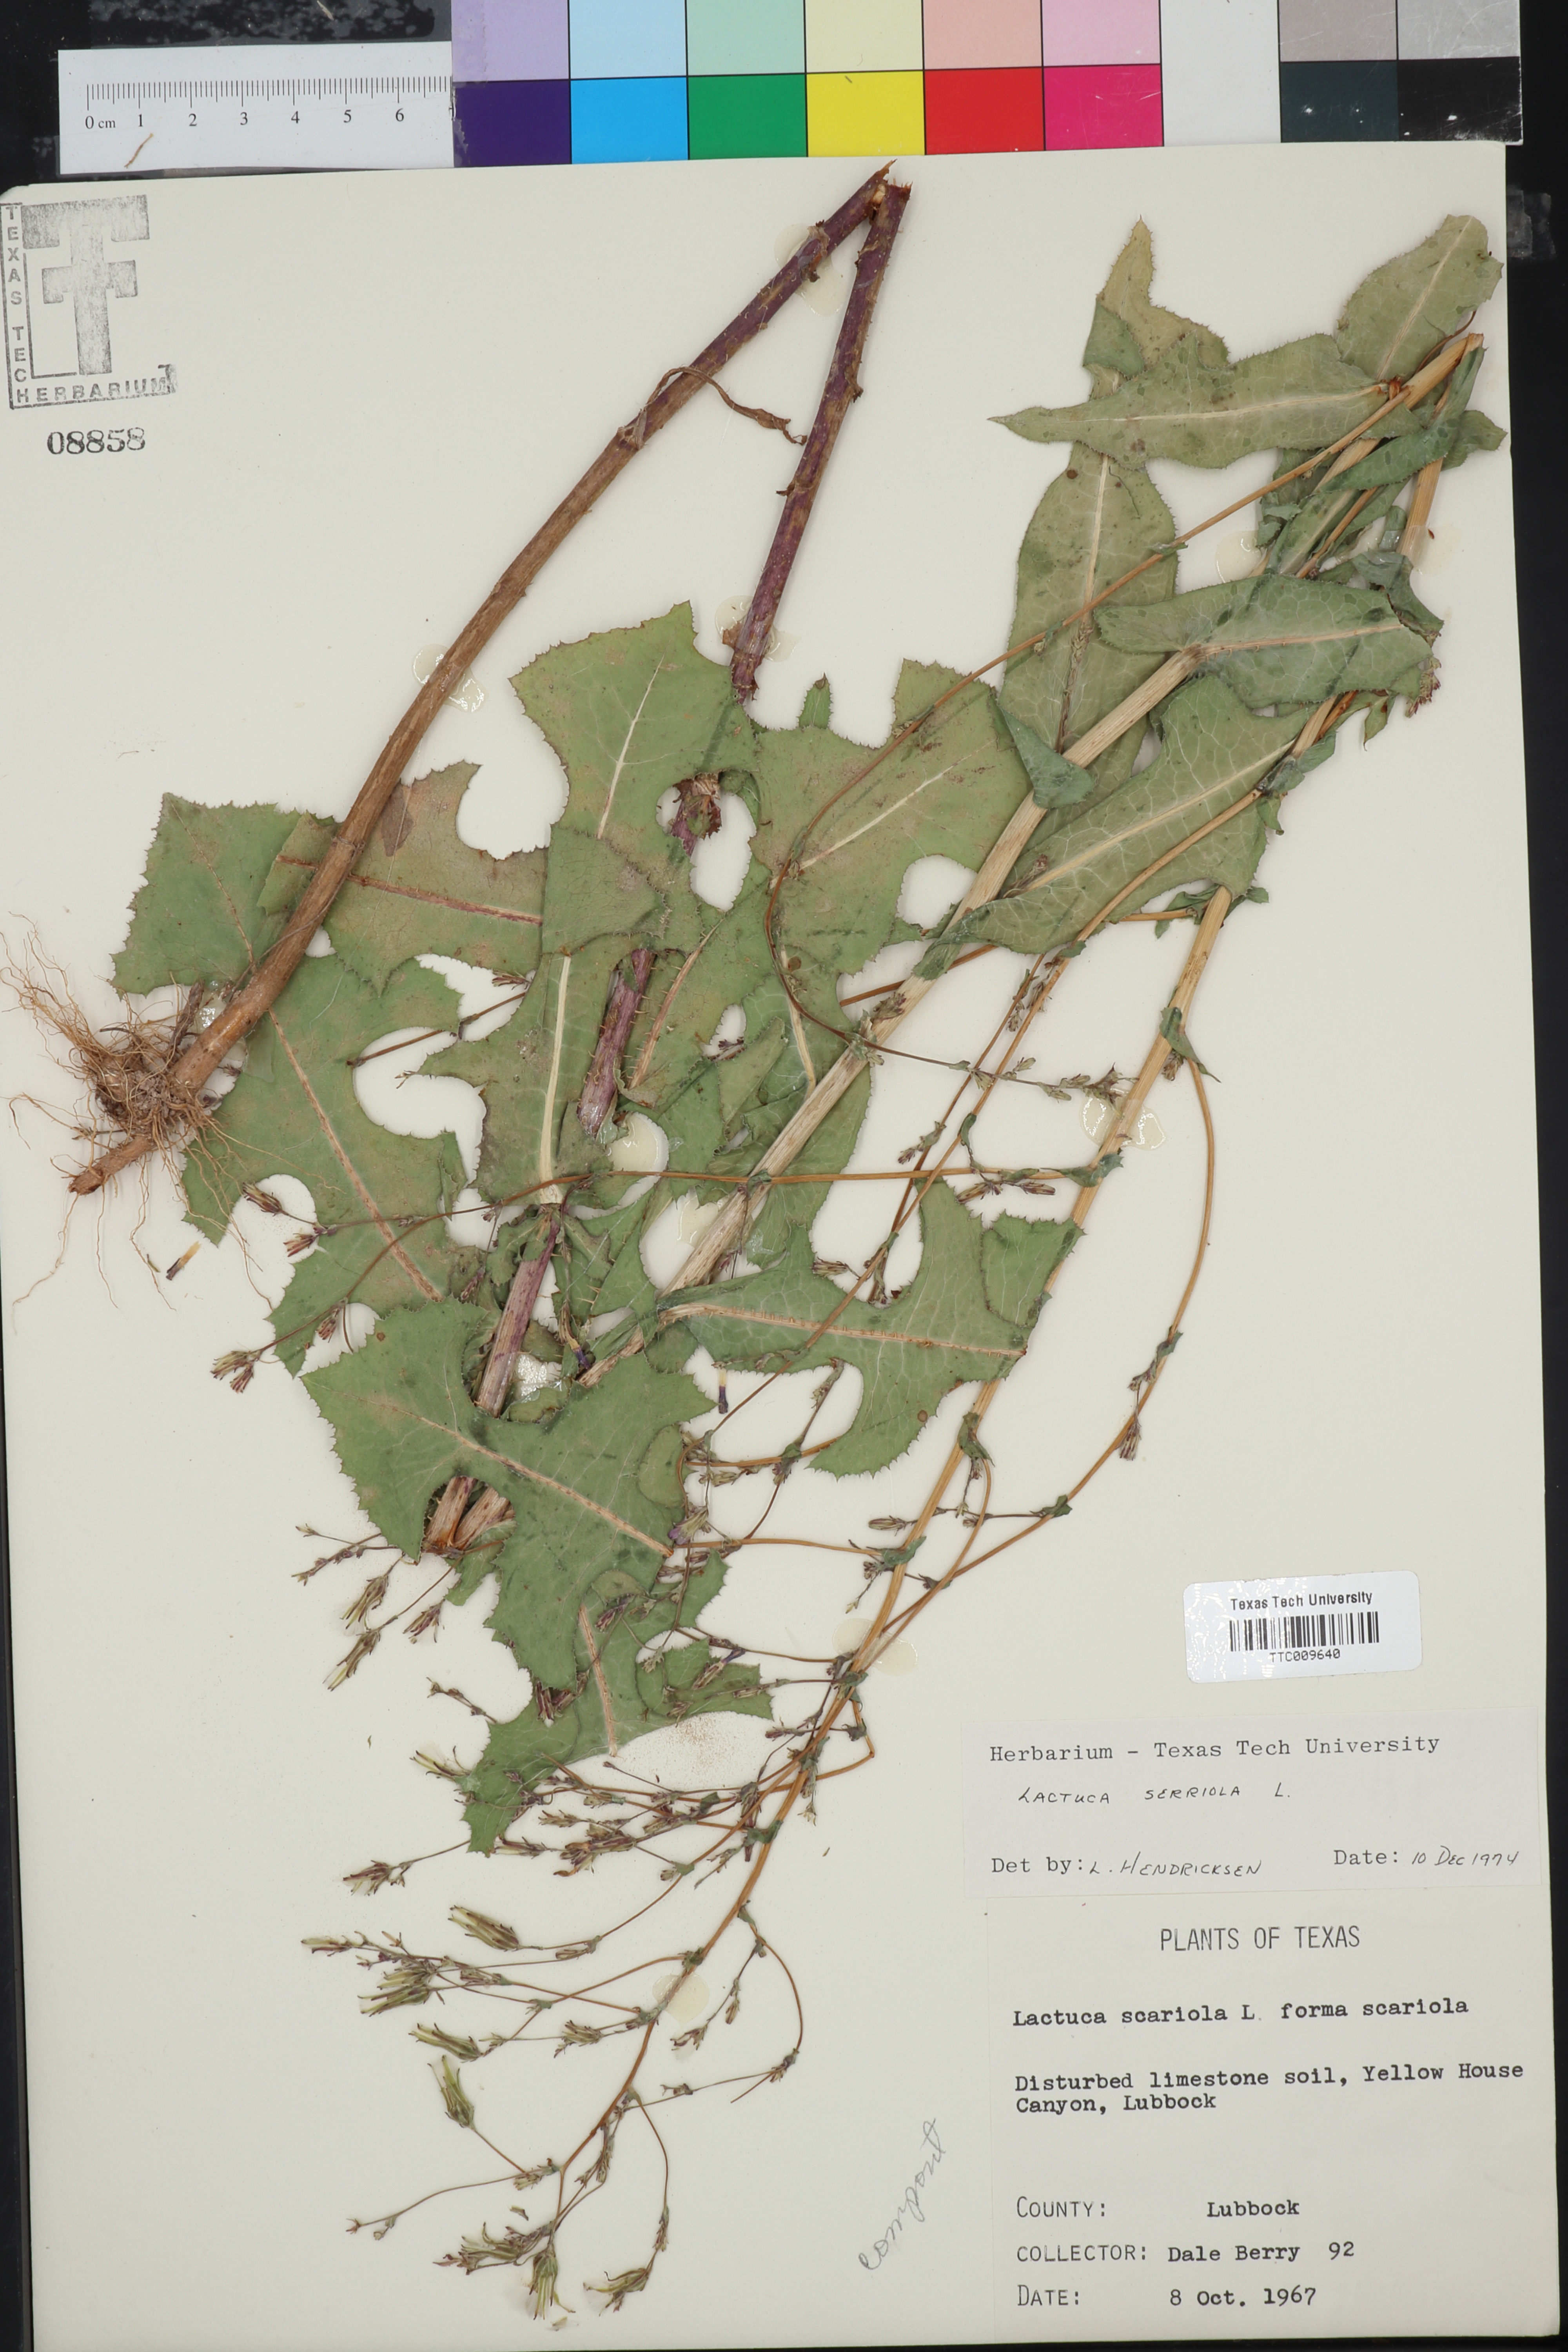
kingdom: Plantae
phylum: Tracheophyta
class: Magnoliopsida
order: Asterales
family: Asteraceae
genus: Lactuca
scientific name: Lactuca serriola
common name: Prickly lettuce
